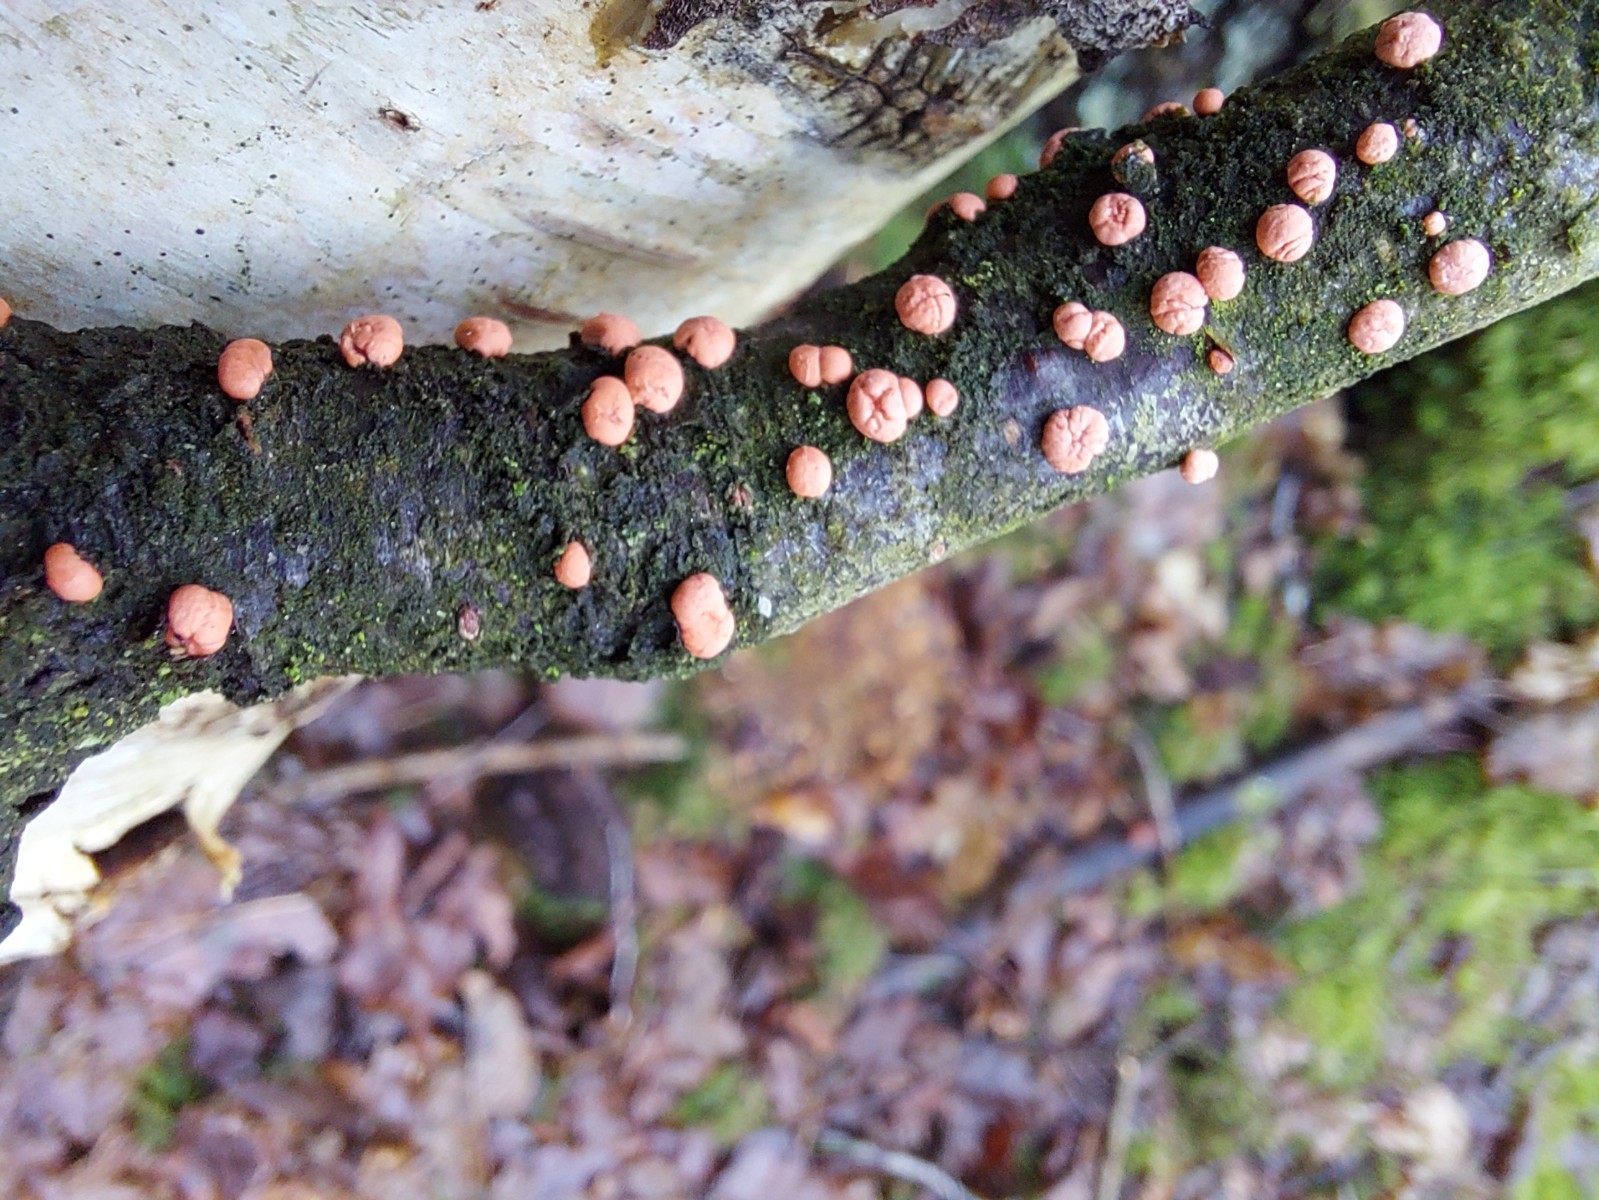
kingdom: Fungi
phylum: Ascomycota
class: Sordariomycetes
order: Hypocreales
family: Nectriaceae
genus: Nectria
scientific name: Nectria
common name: cinnobersvamp
